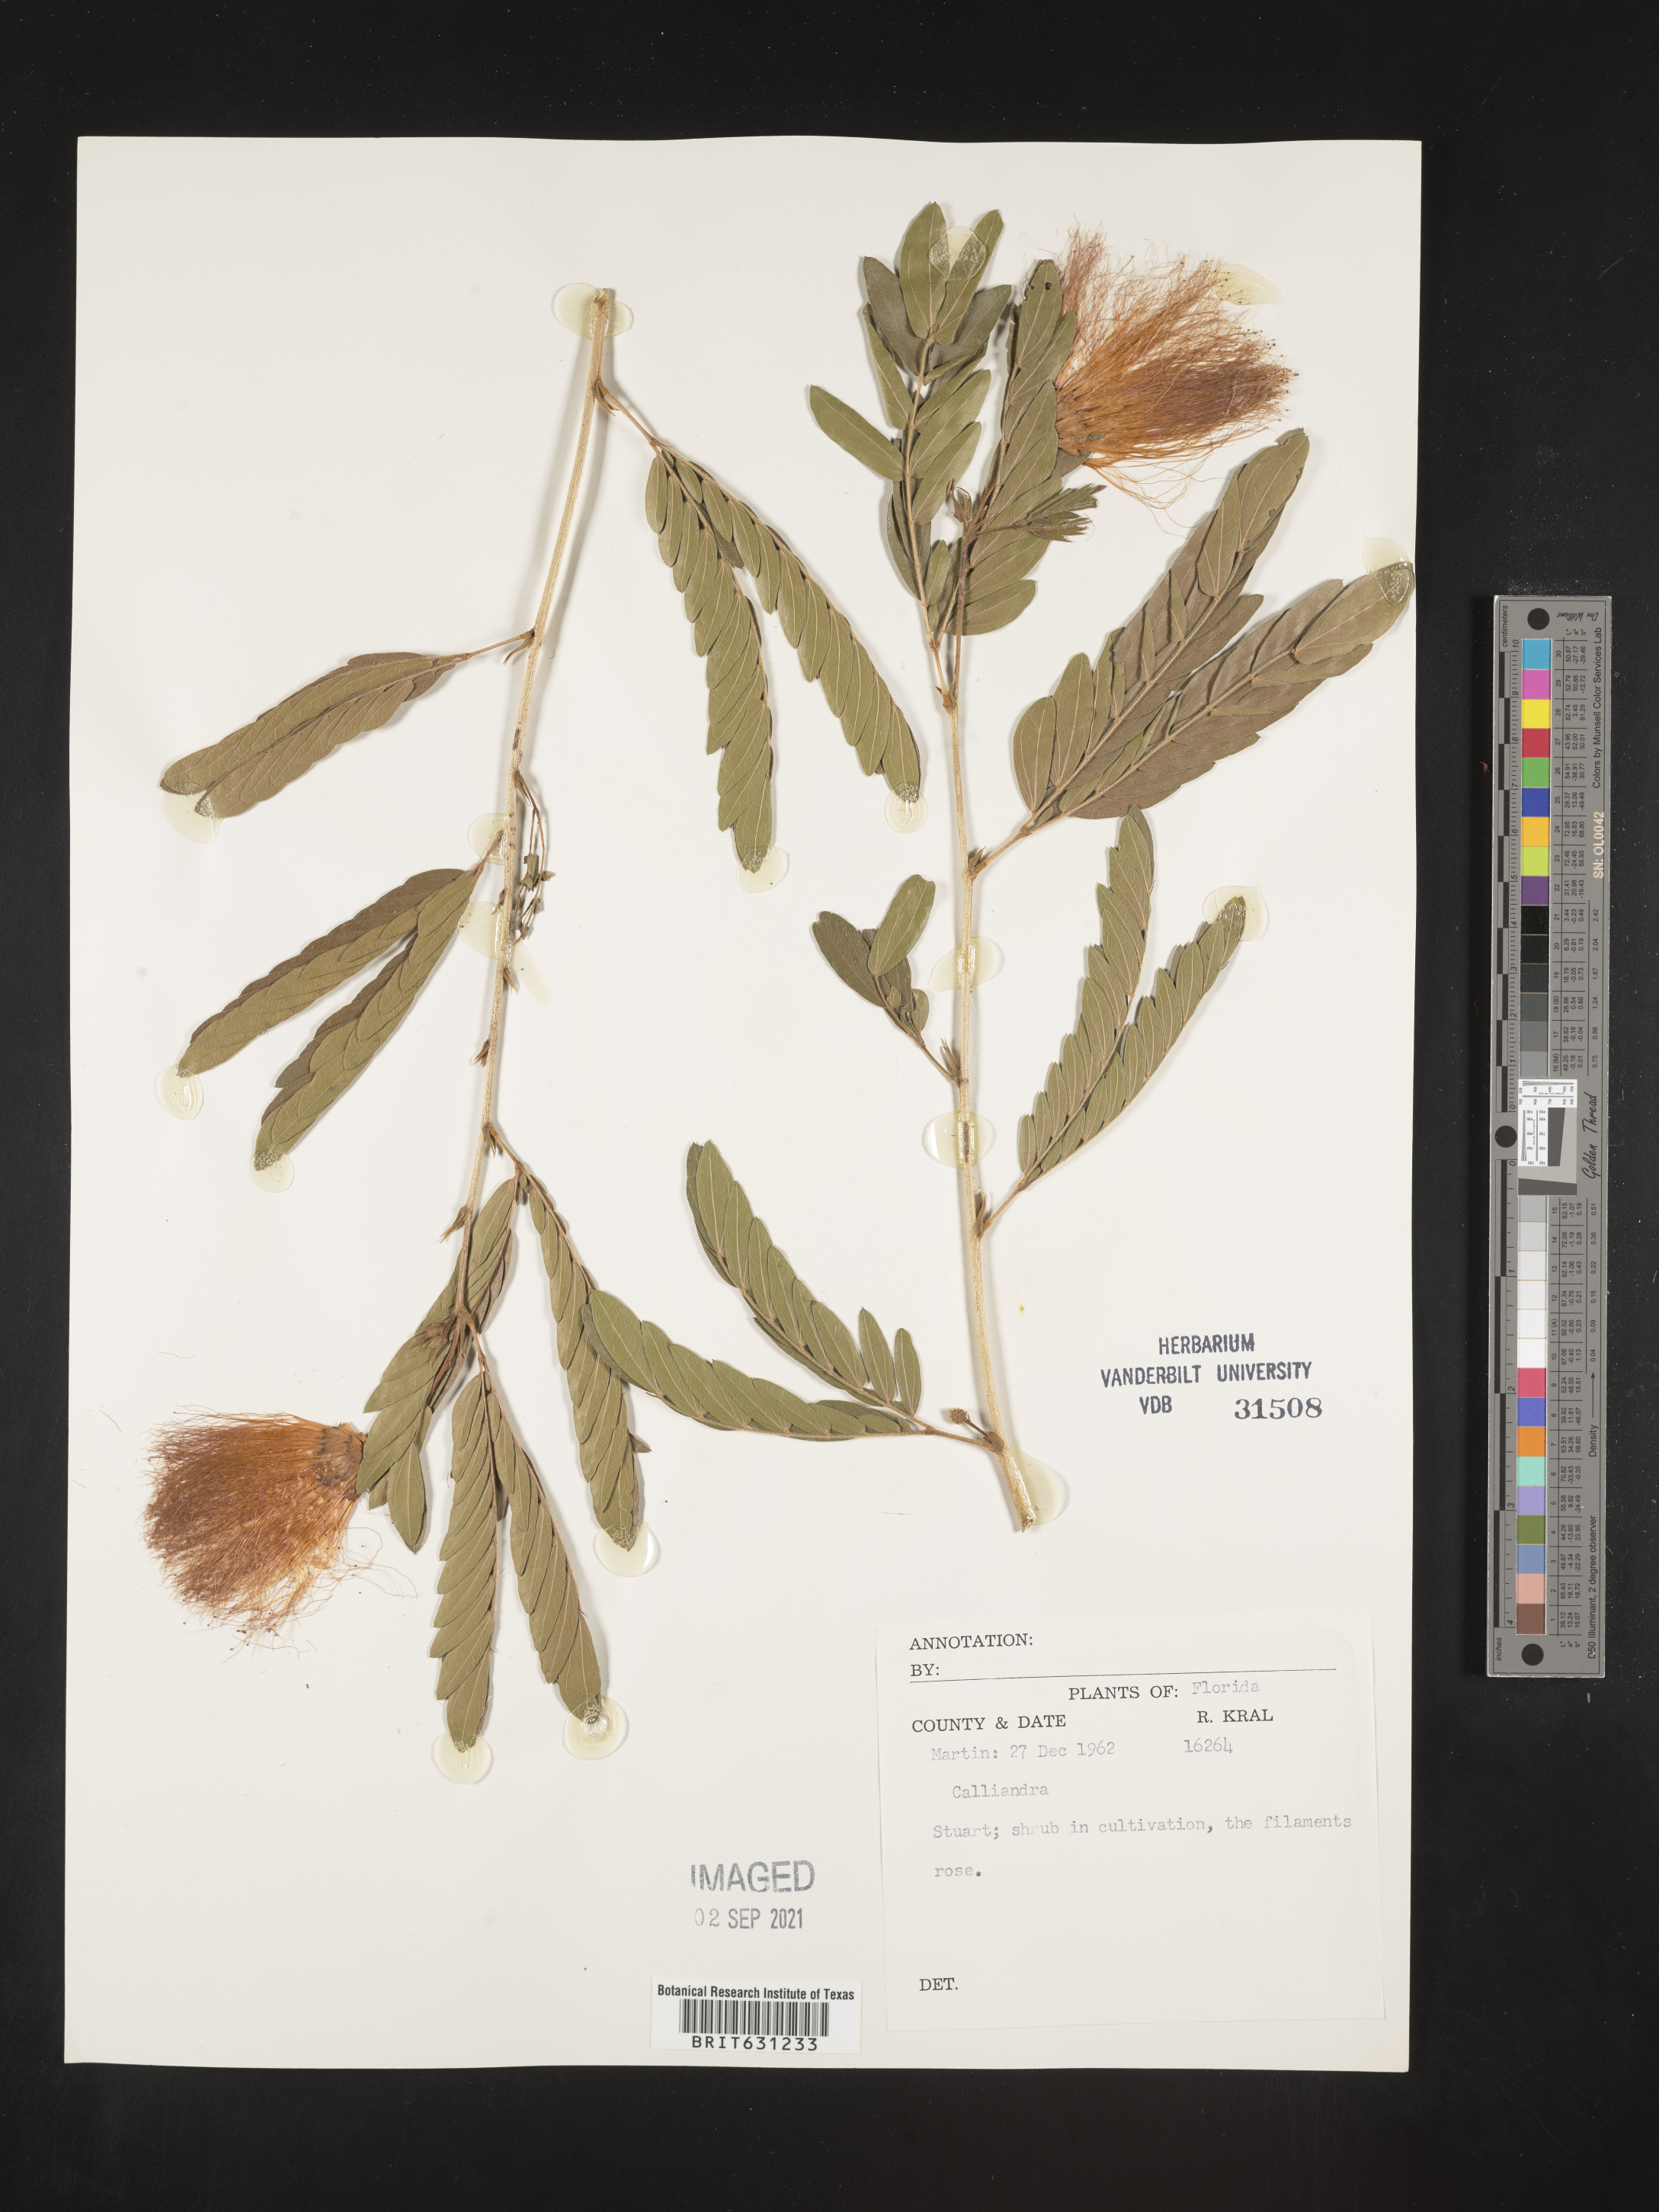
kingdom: Plantae
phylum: Tracheophyta
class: Magnoliopsida
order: Fabales
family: Fabaceae
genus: Calliandra
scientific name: Calliandra
